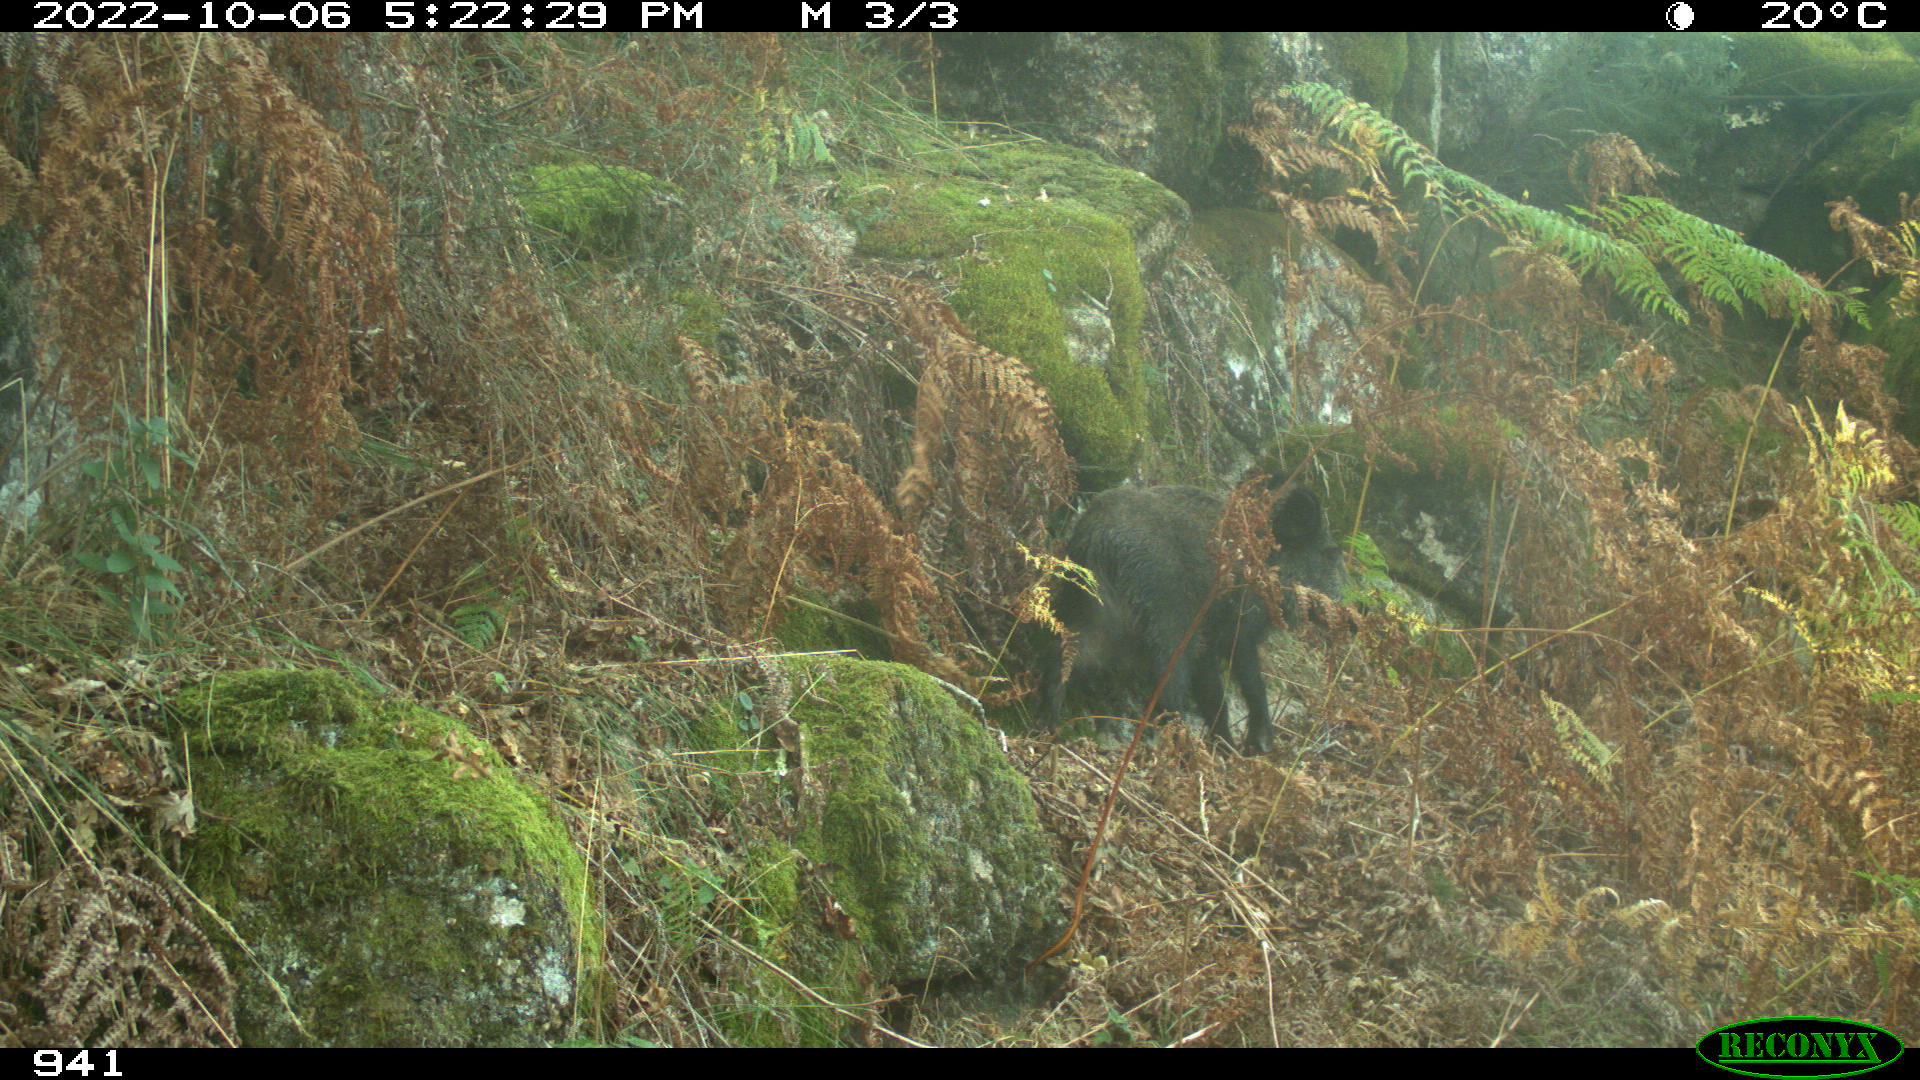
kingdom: Animalia
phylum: Chordata
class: Mammalia
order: Artiodactyla
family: Suidae
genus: Sus
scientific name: Sus scrofa
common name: Wild boar
